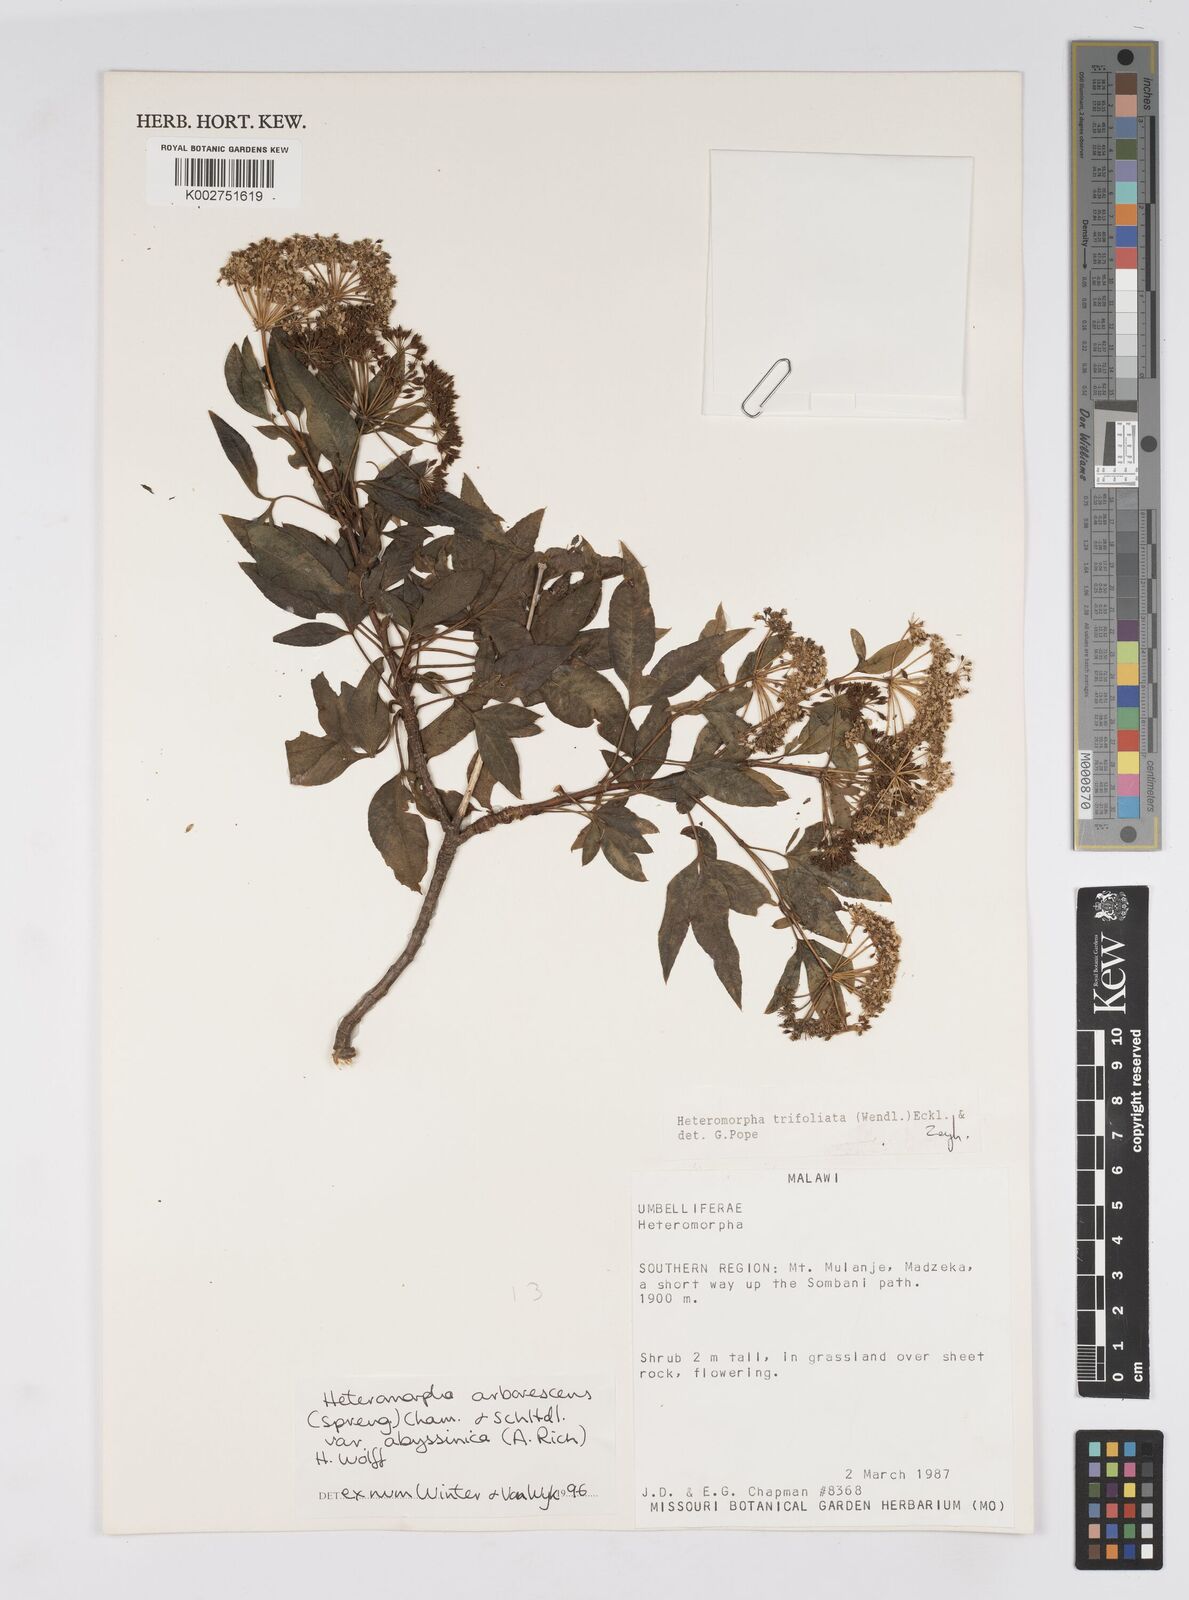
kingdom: Plantae
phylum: Tracheophyta
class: Magnoliopsida
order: Apiales
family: Apiaceae
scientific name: Apiaceae
